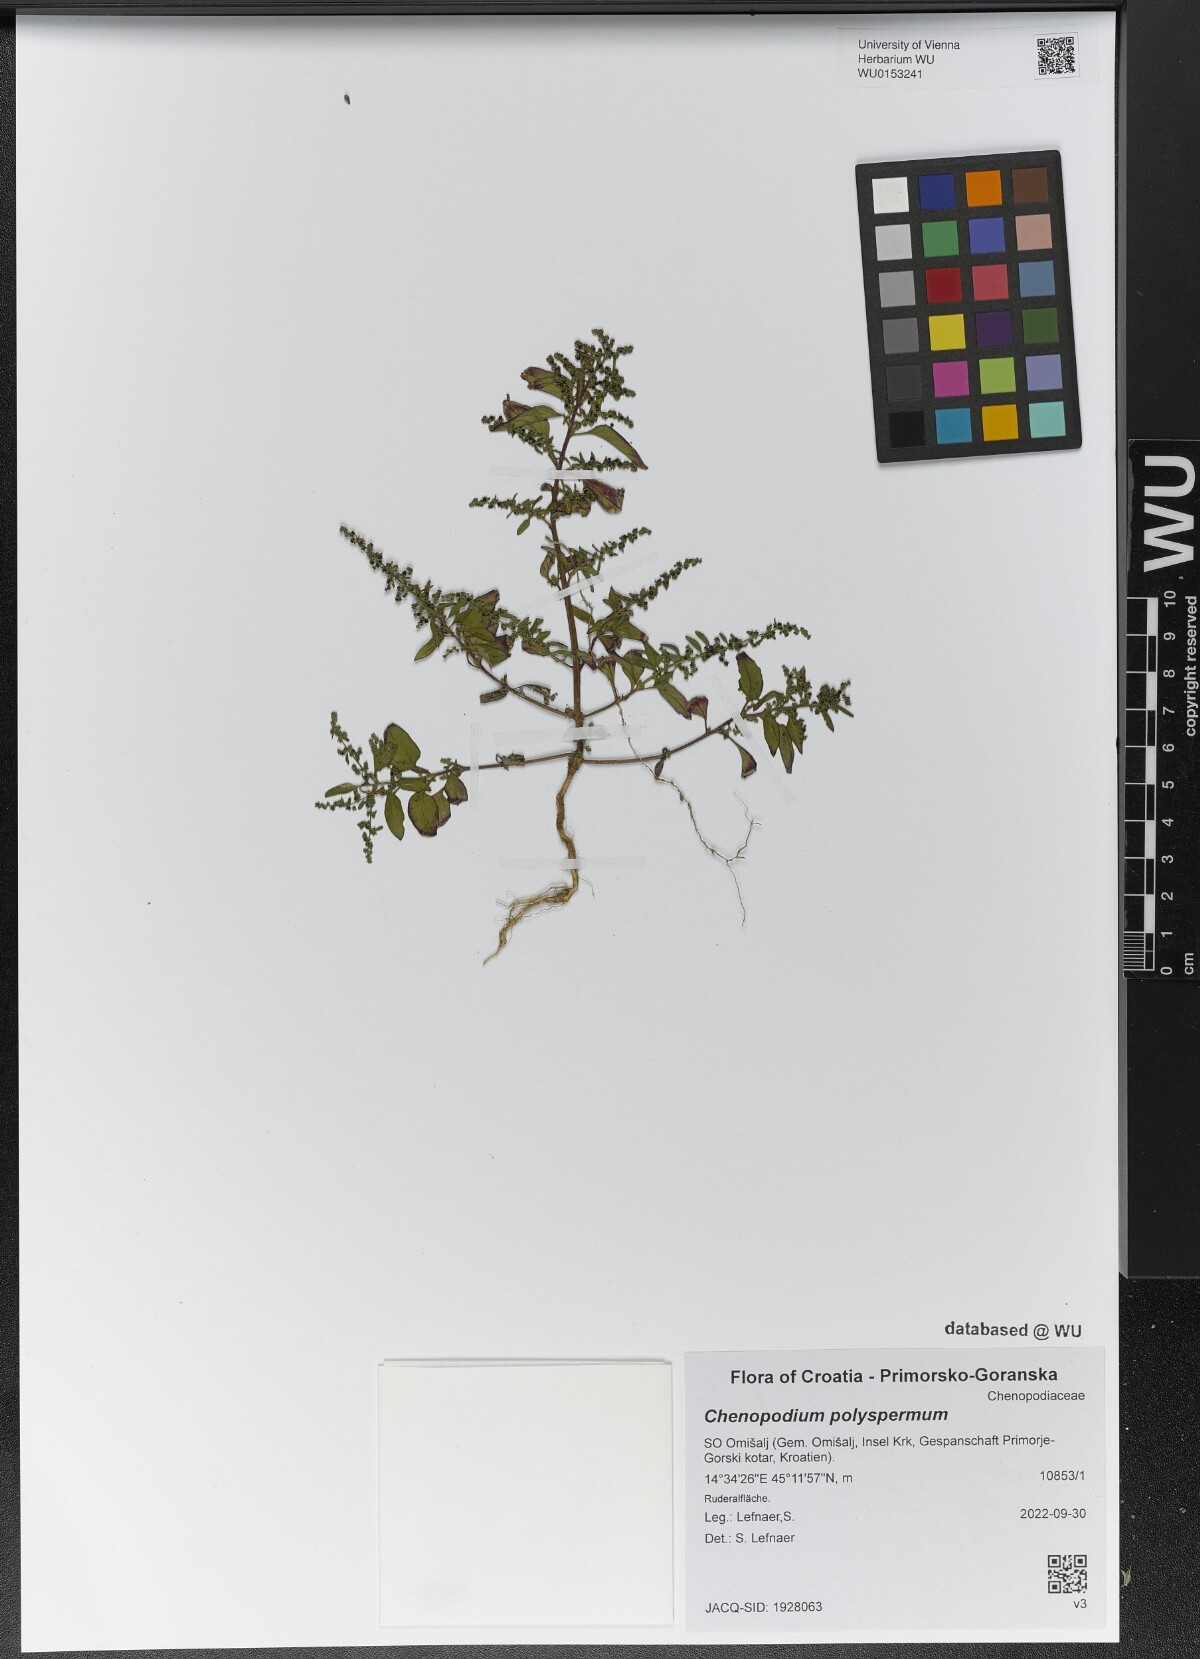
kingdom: Plantae
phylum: Tracheophyta
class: Magnoliopsida
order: Caryophyllales
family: Amaranthaceae
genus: Lipandra
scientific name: Lipandra polysperma
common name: Many-seed goosefoot
